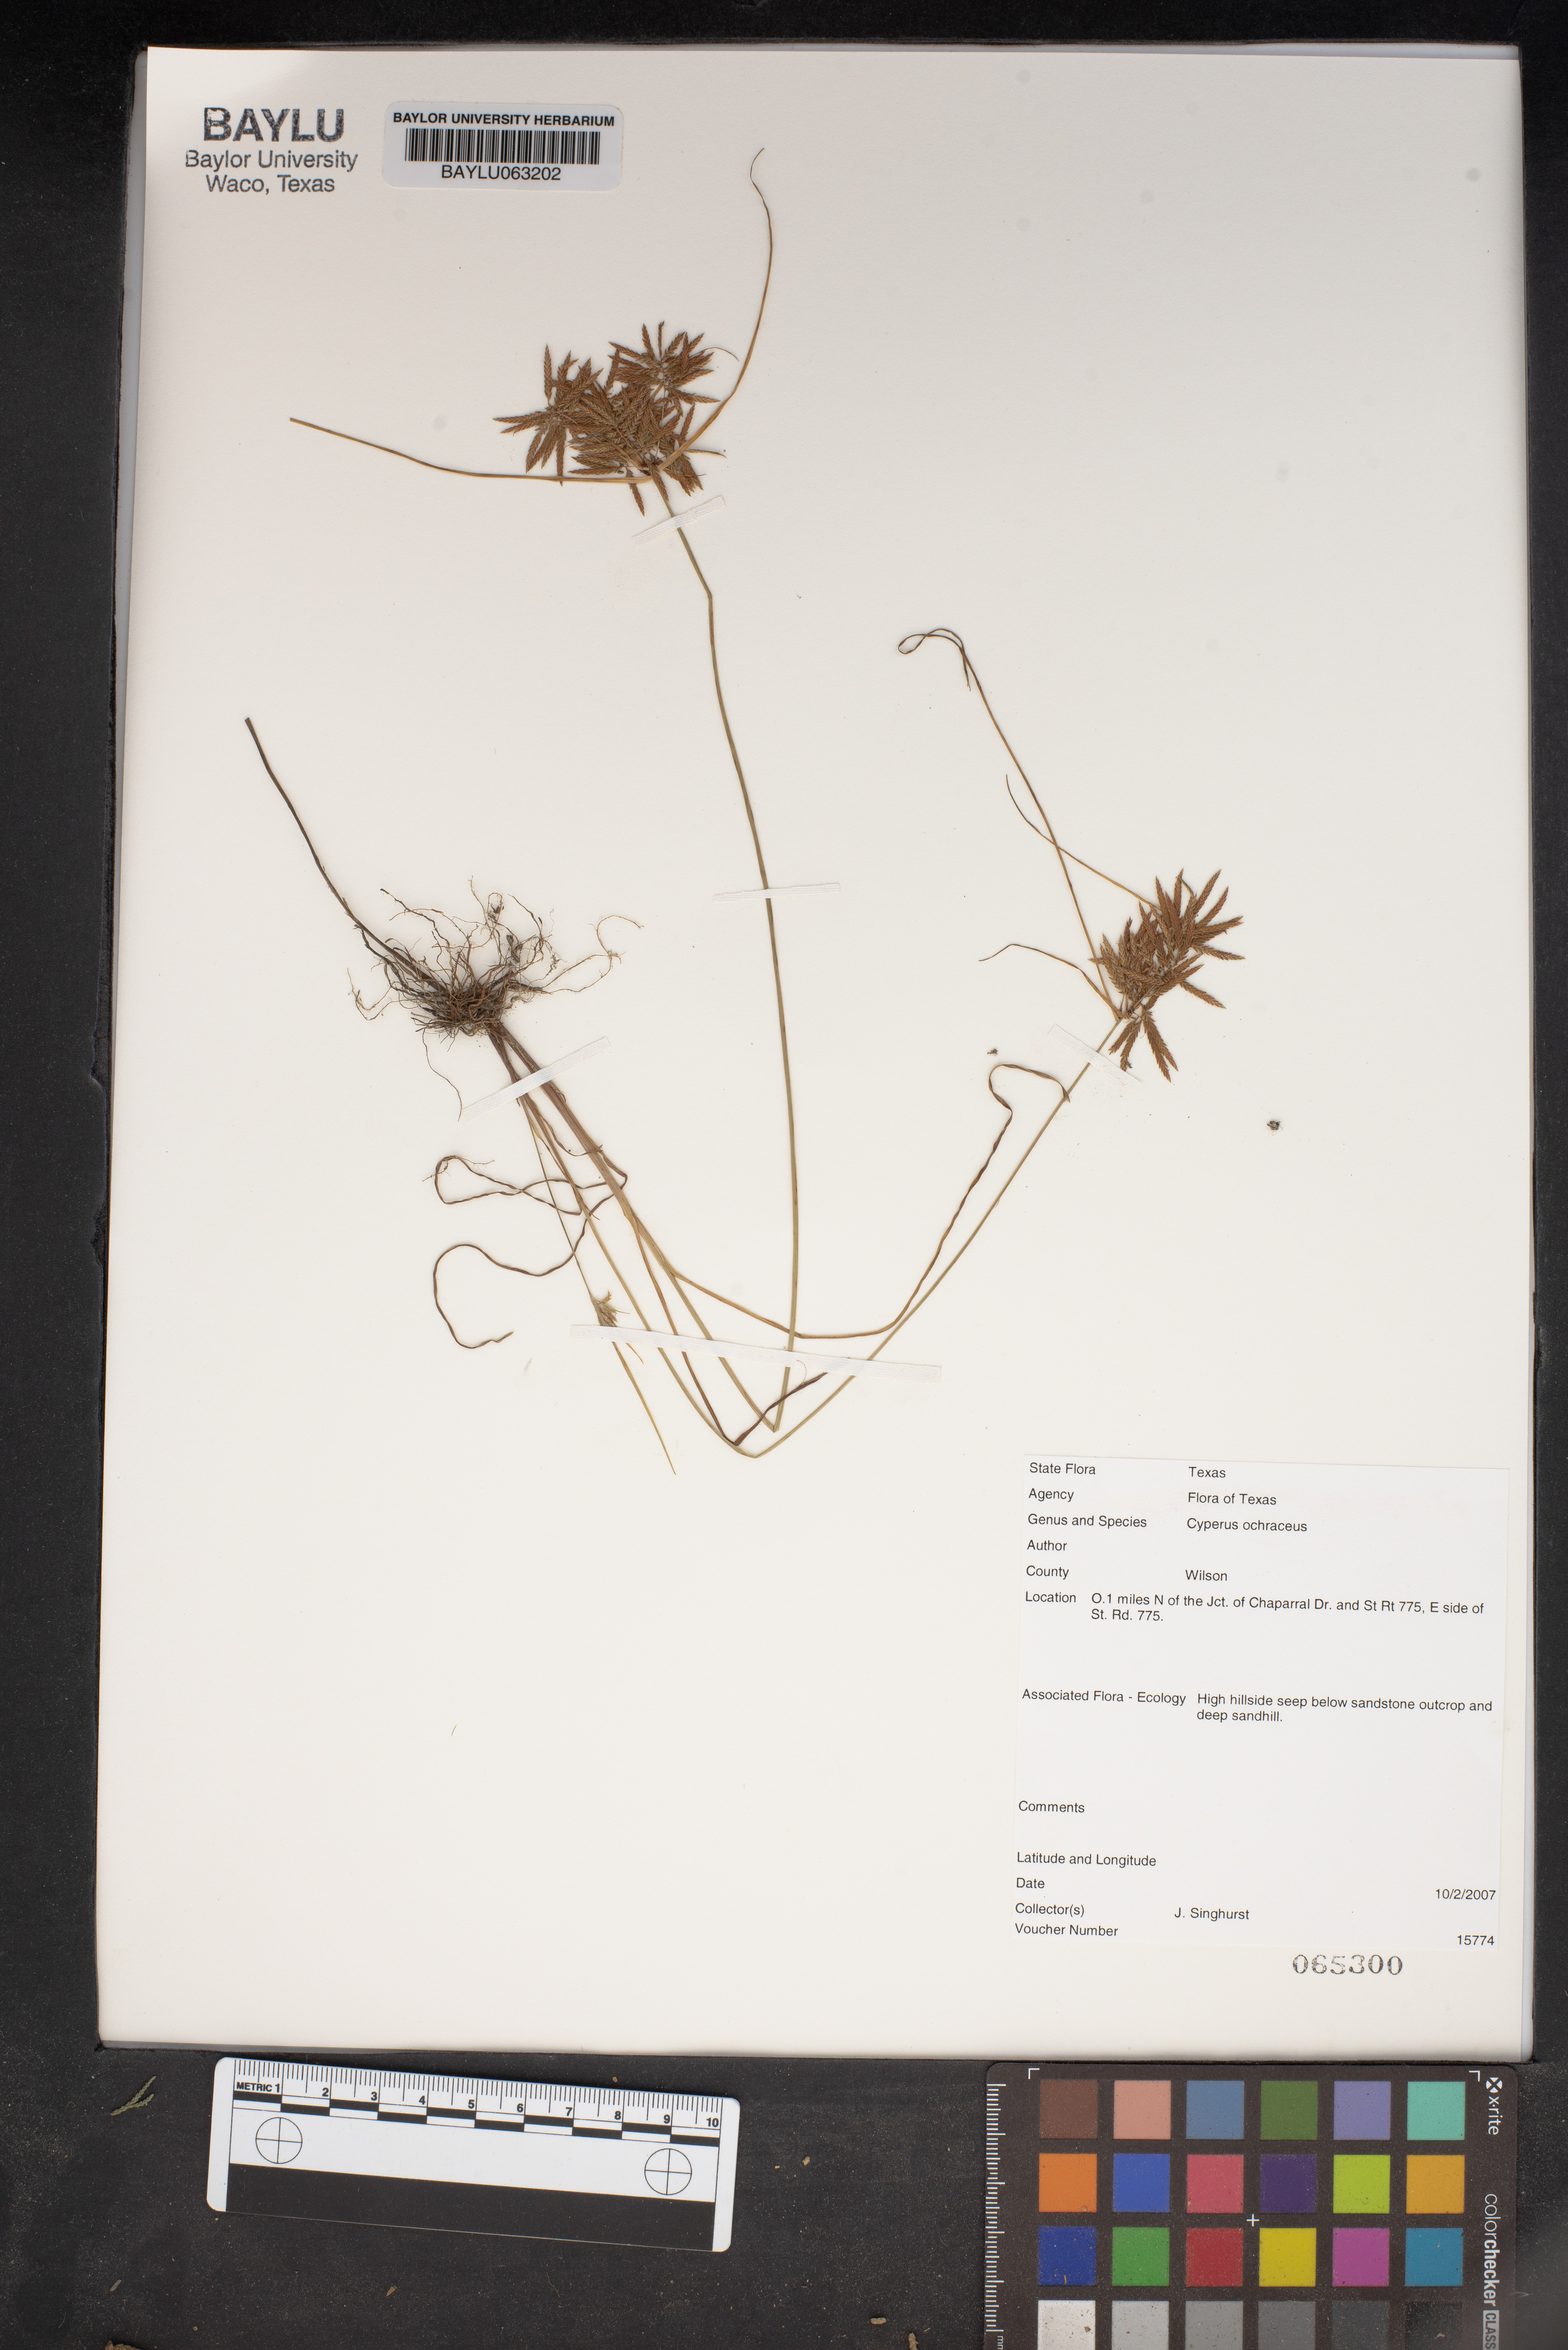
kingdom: Plantae
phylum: Tracheophyta
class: Liliopsida
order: Poales
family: Cyperaceae
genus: Cyperus
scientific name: Cyperus ochraceus
